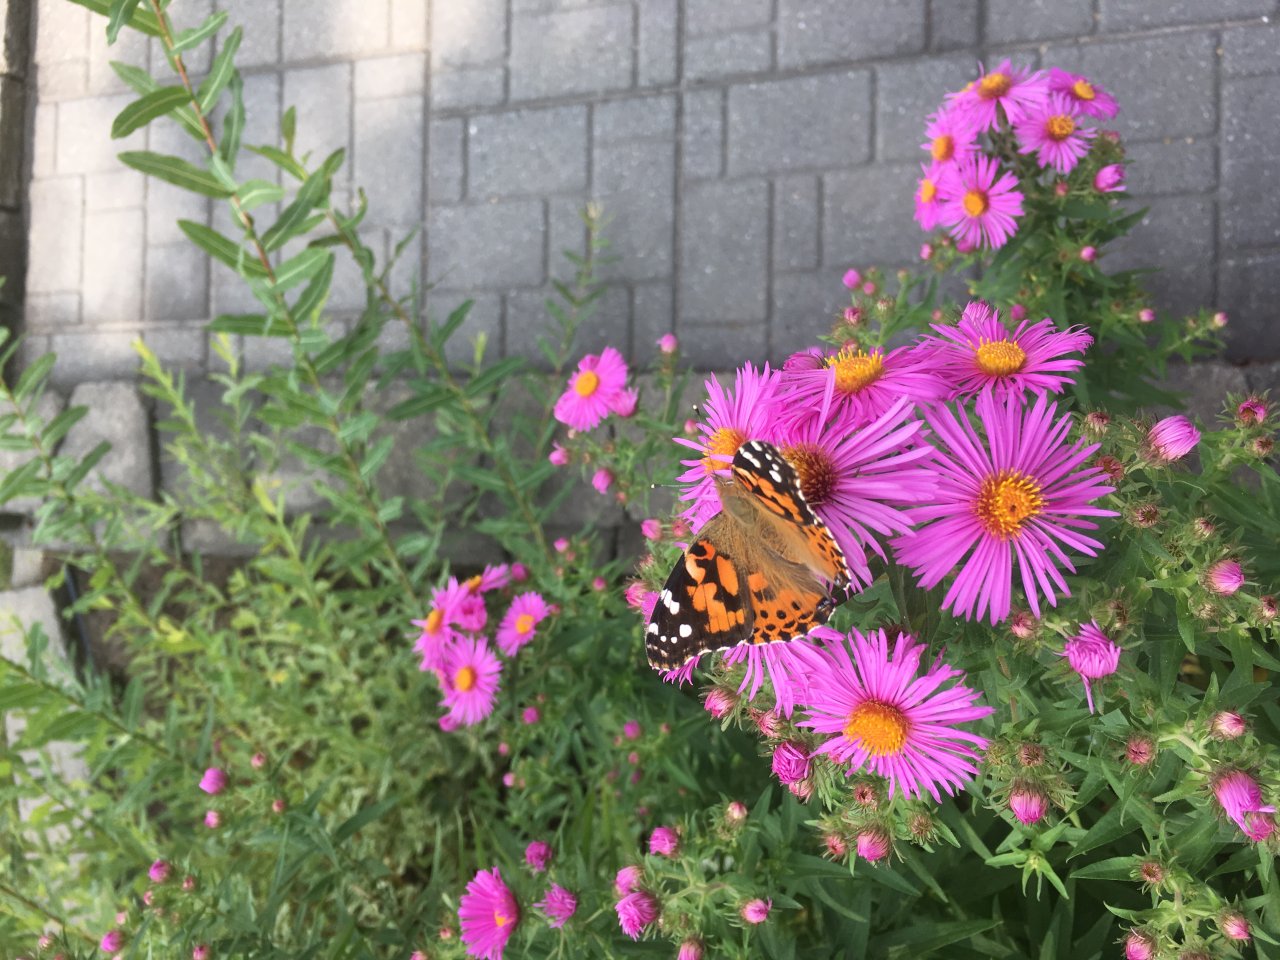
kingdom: Animalia
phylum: Arthropoda
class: Insecta
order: Lepidoptera
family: Nymphalidae
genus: Vanessa
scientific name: Vanessa cardui
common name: Painted Lady
